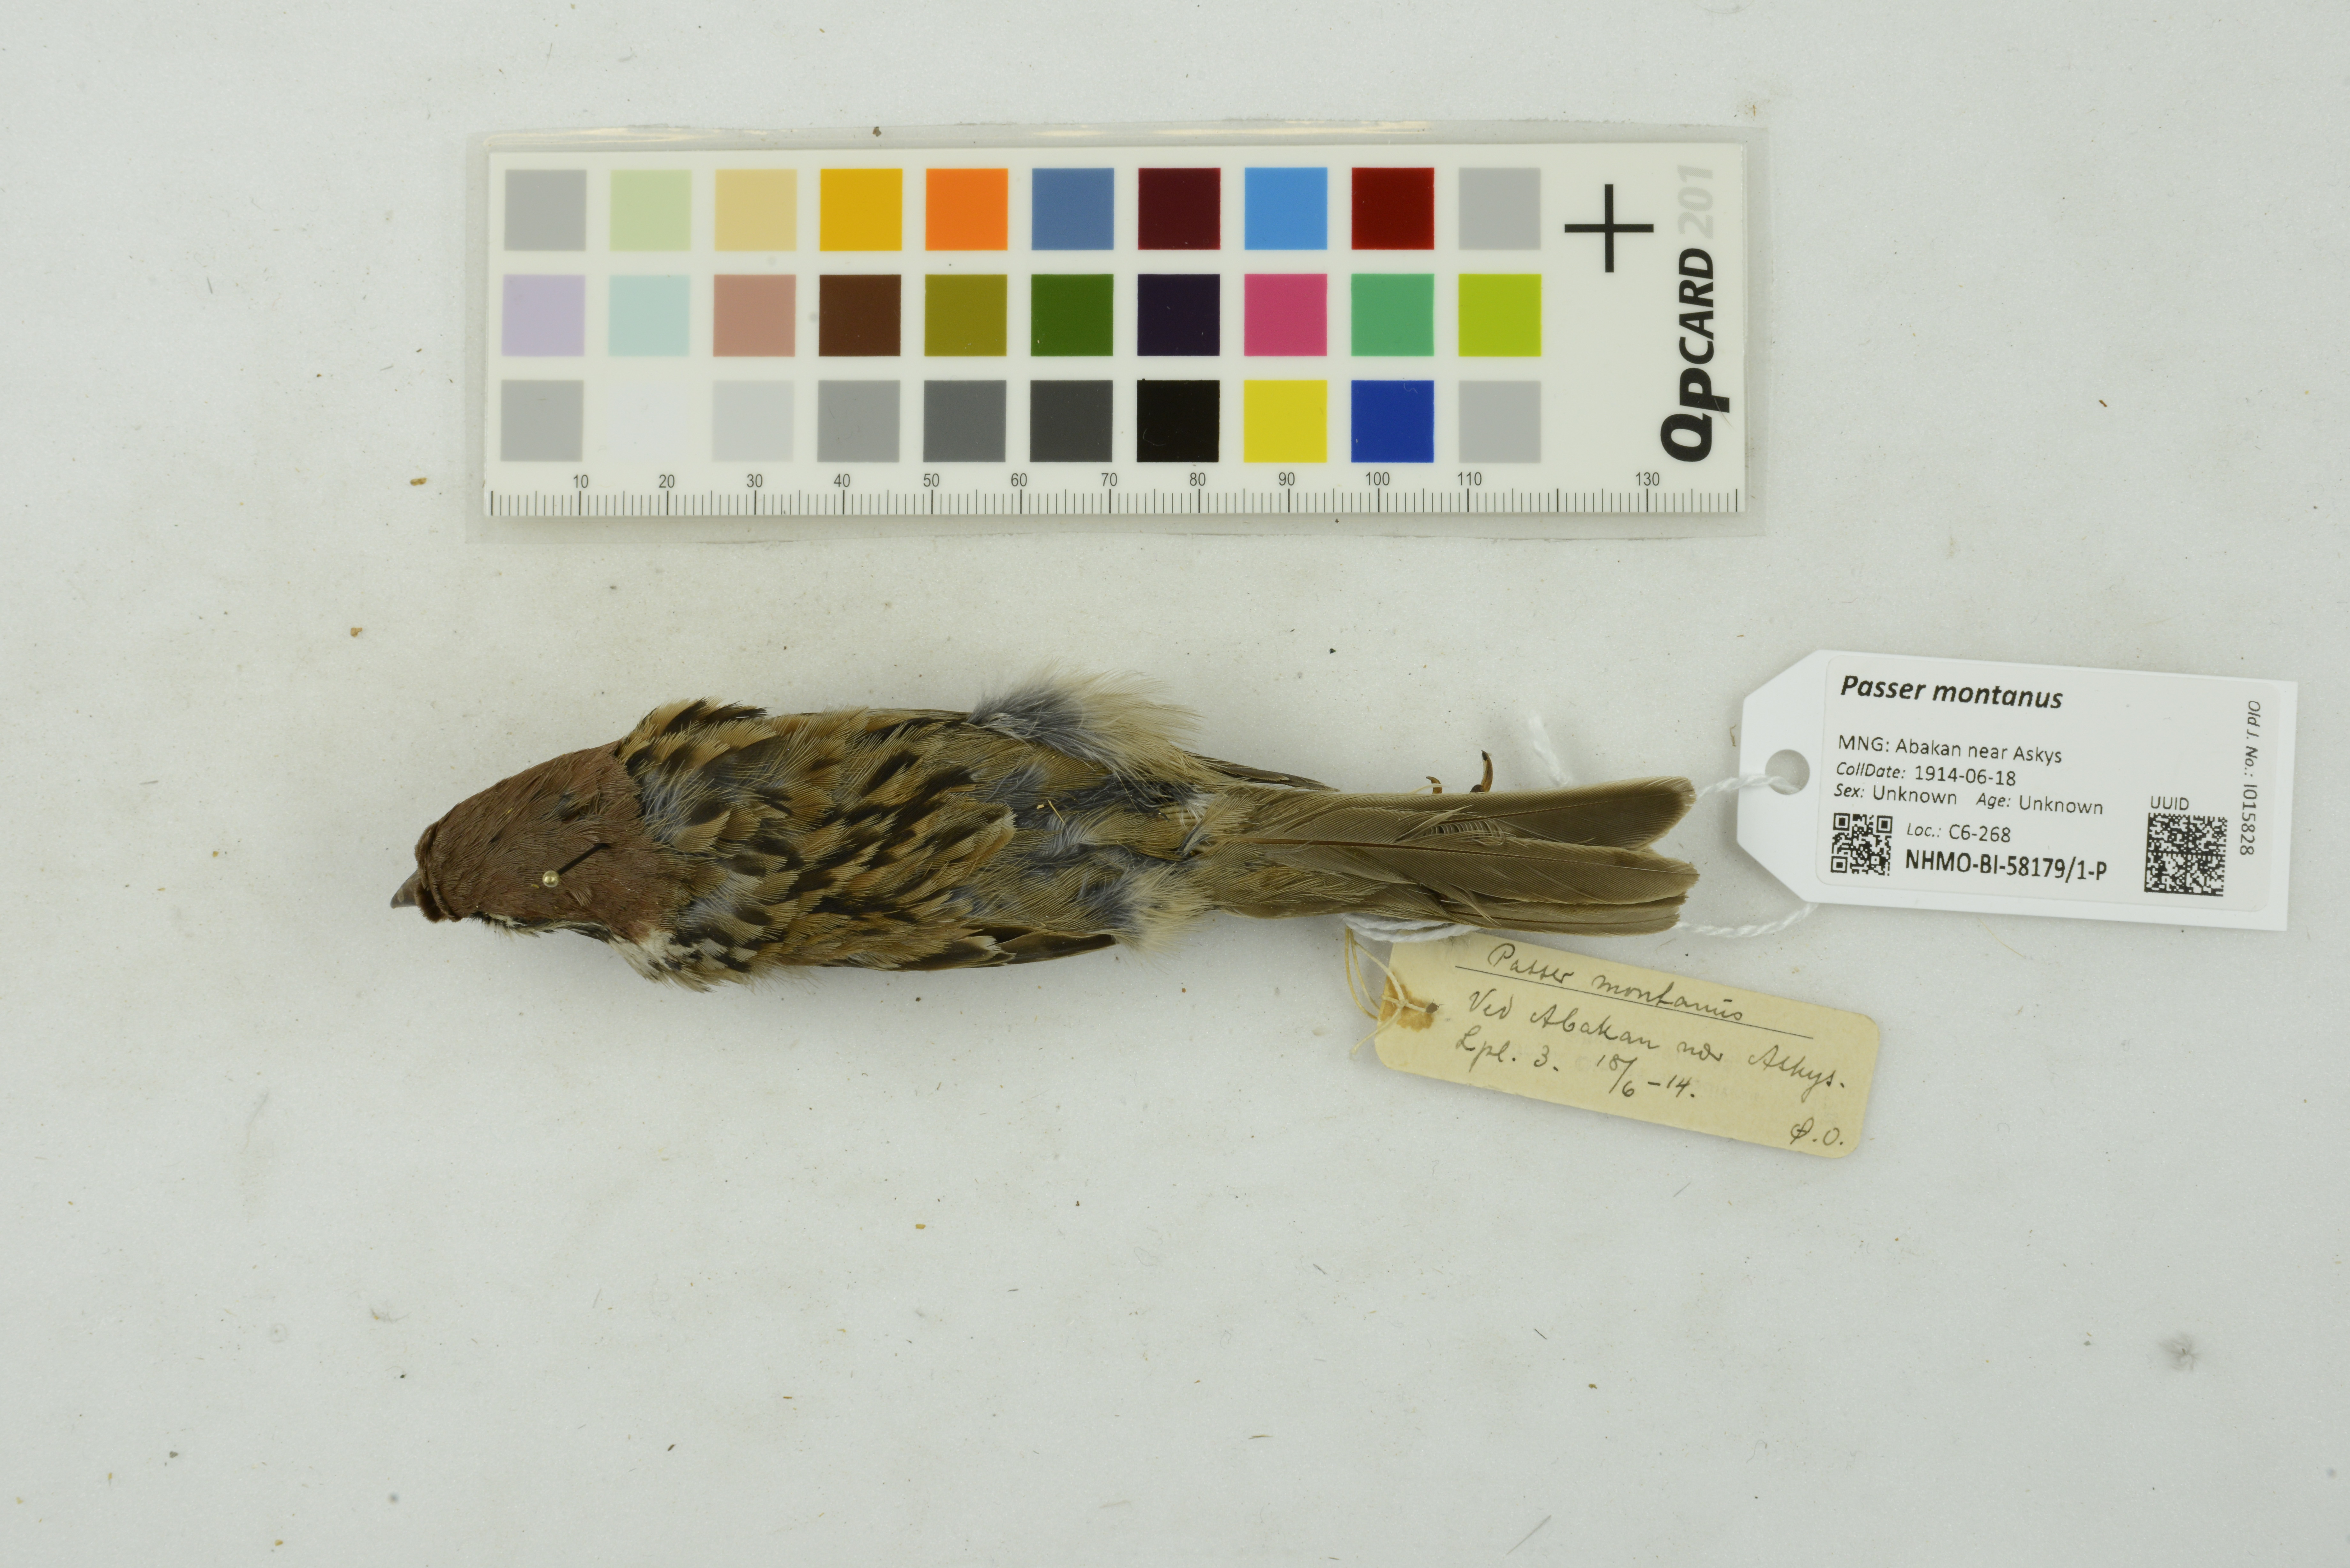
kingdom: Animalia
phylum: Chordata
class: Aves
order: Passeriformes
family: Passeridae
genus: Passer
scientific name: Passer montanus
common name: Eurasian tree sparrow
